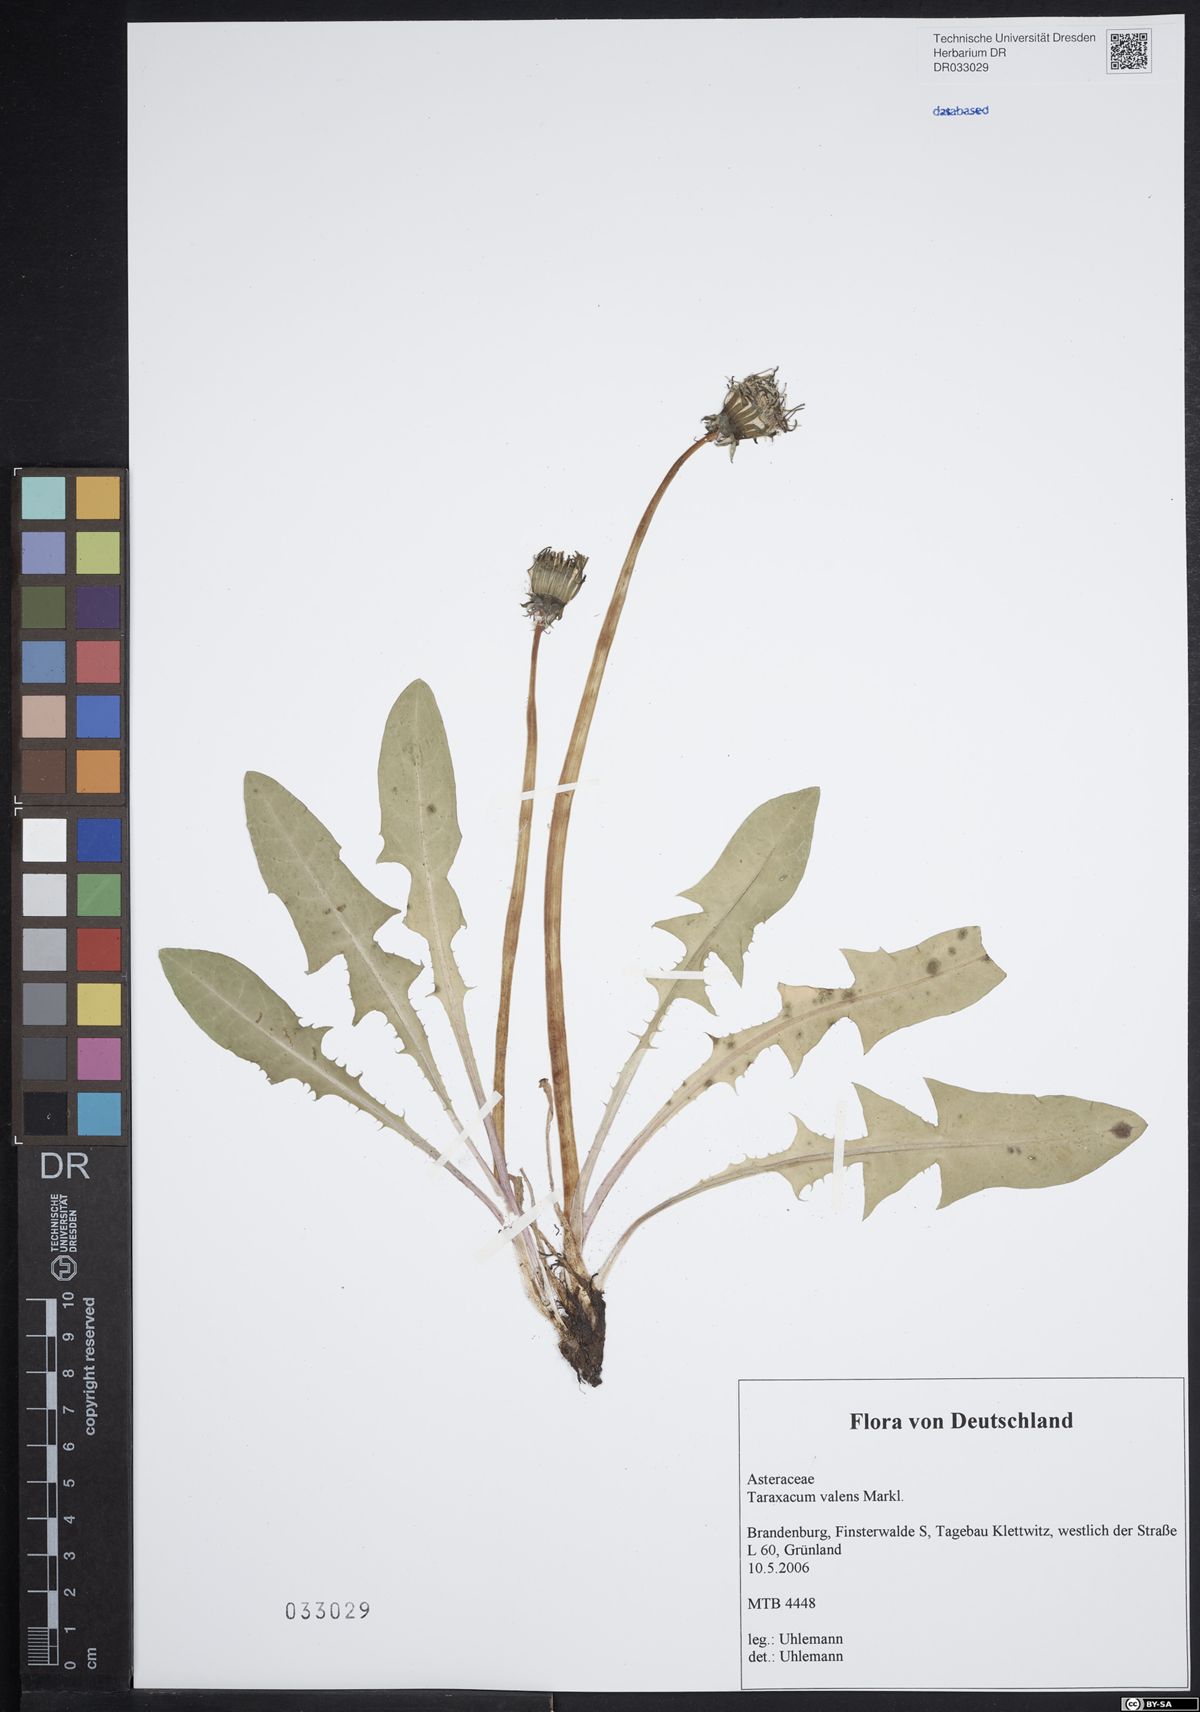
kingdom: Plantae
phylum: Tracheophyta
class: Magnoliopsida
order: Asterales
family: Asteraceae
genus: Taraxacum
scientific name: Taraxacum valens
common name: Reflexed-bracted dandelion
